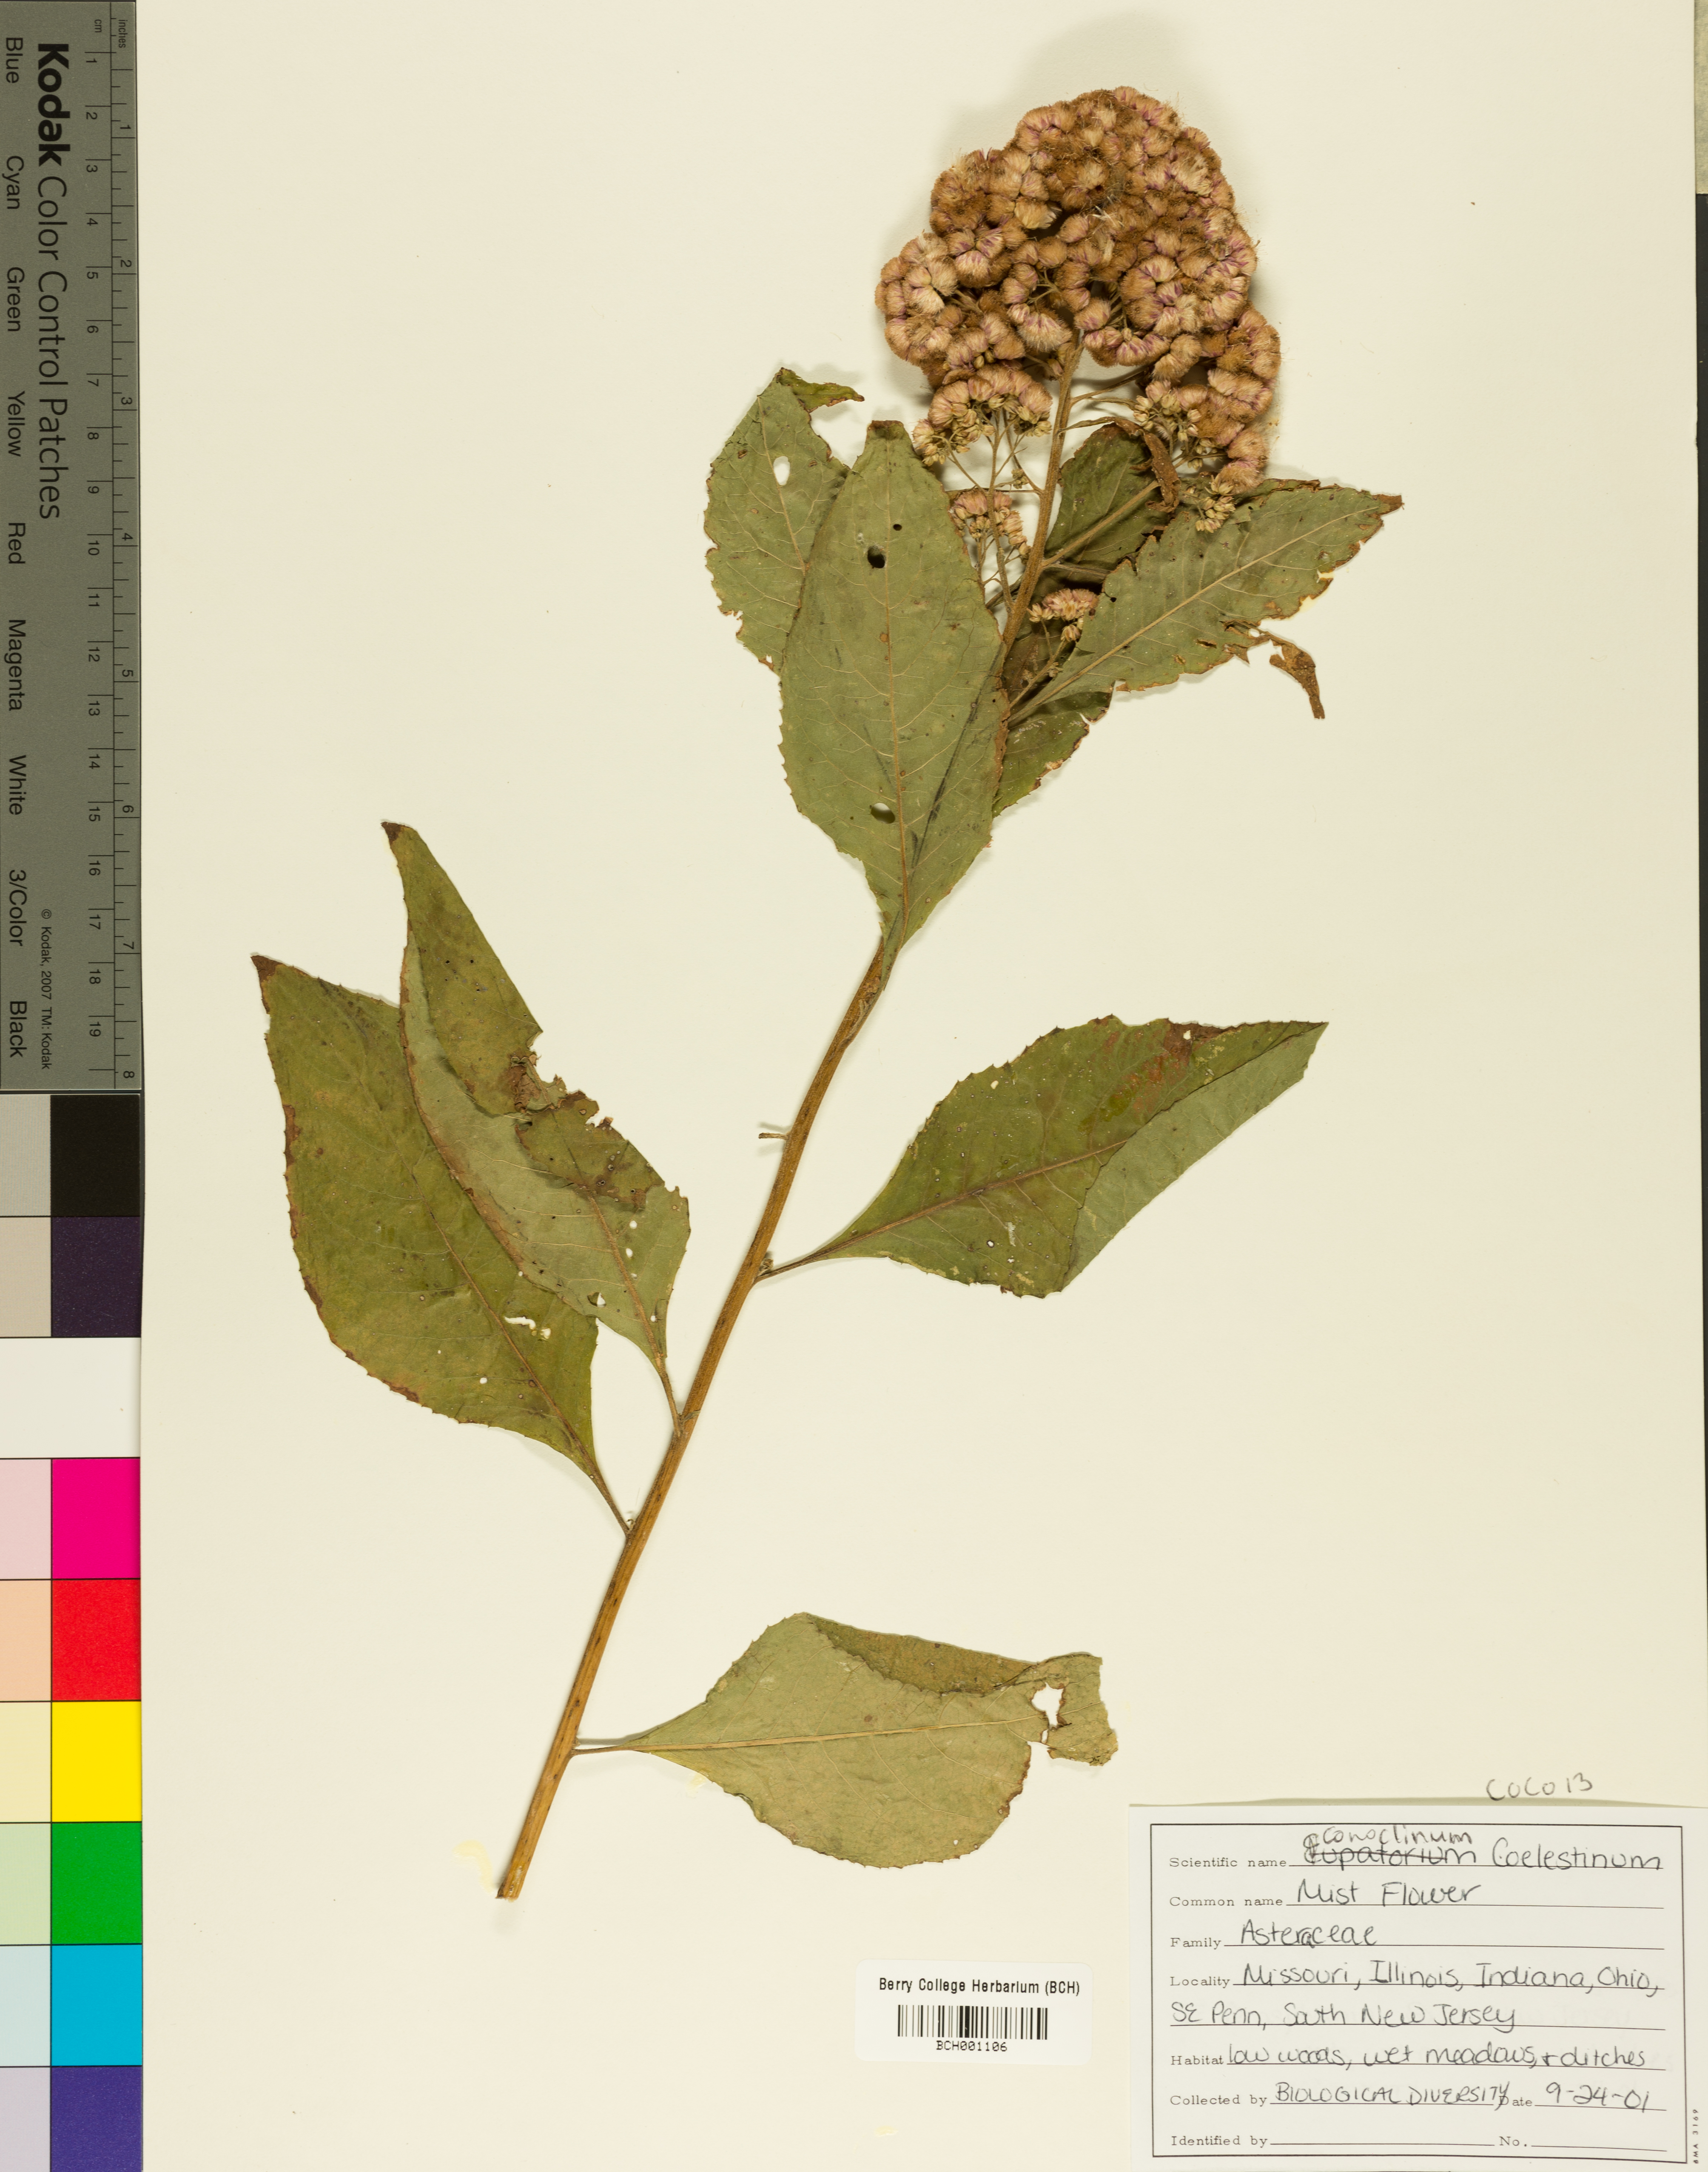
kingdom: Plantae
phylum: Tracheophyta
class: Magnoliopsida
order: Asterales
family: Asteraceae
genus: Conoclinium
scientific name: Conoclinium coelestinum
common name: Blue mistflower
